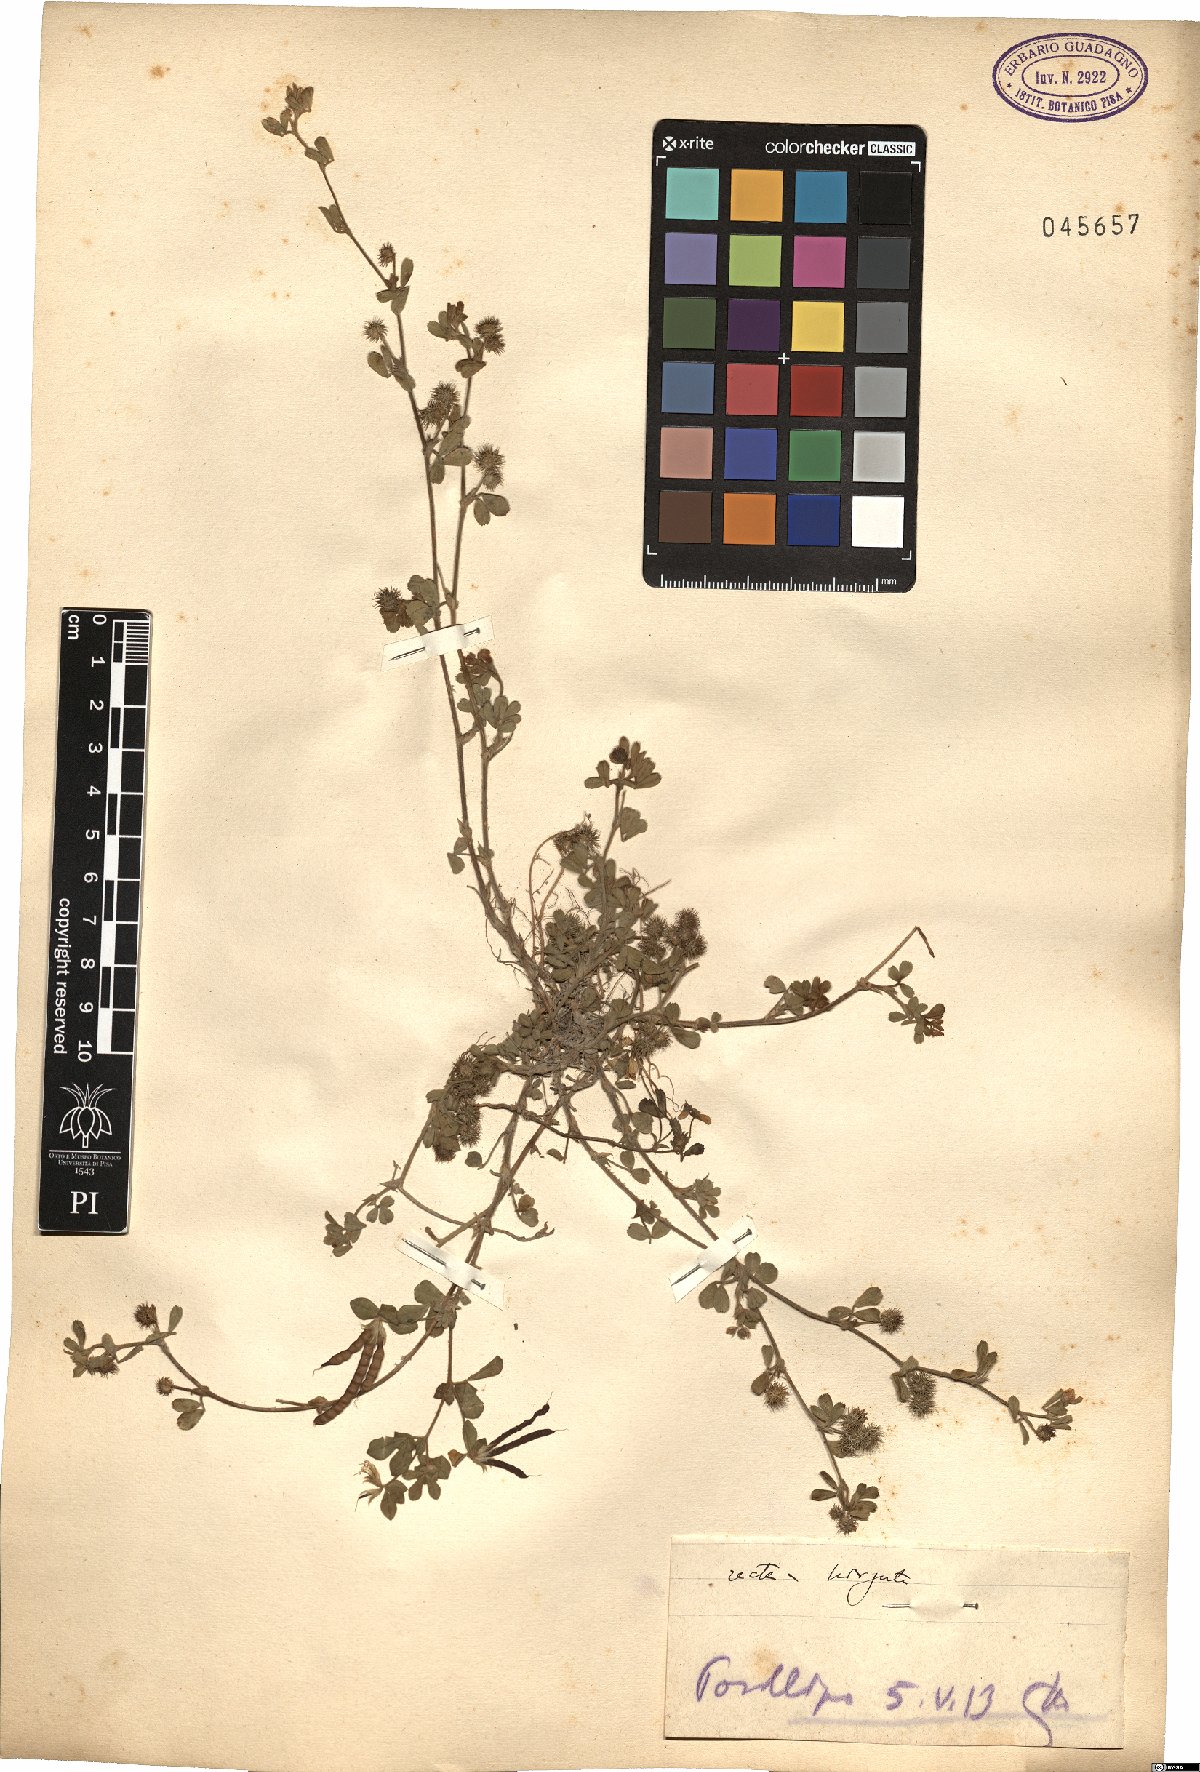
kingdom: Plantae
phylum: Tracheophyta
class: Magnoliopsida
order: Fabales
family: Fabaceae
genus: Medicago
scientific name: Medicago minima
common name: Little bur-clover
